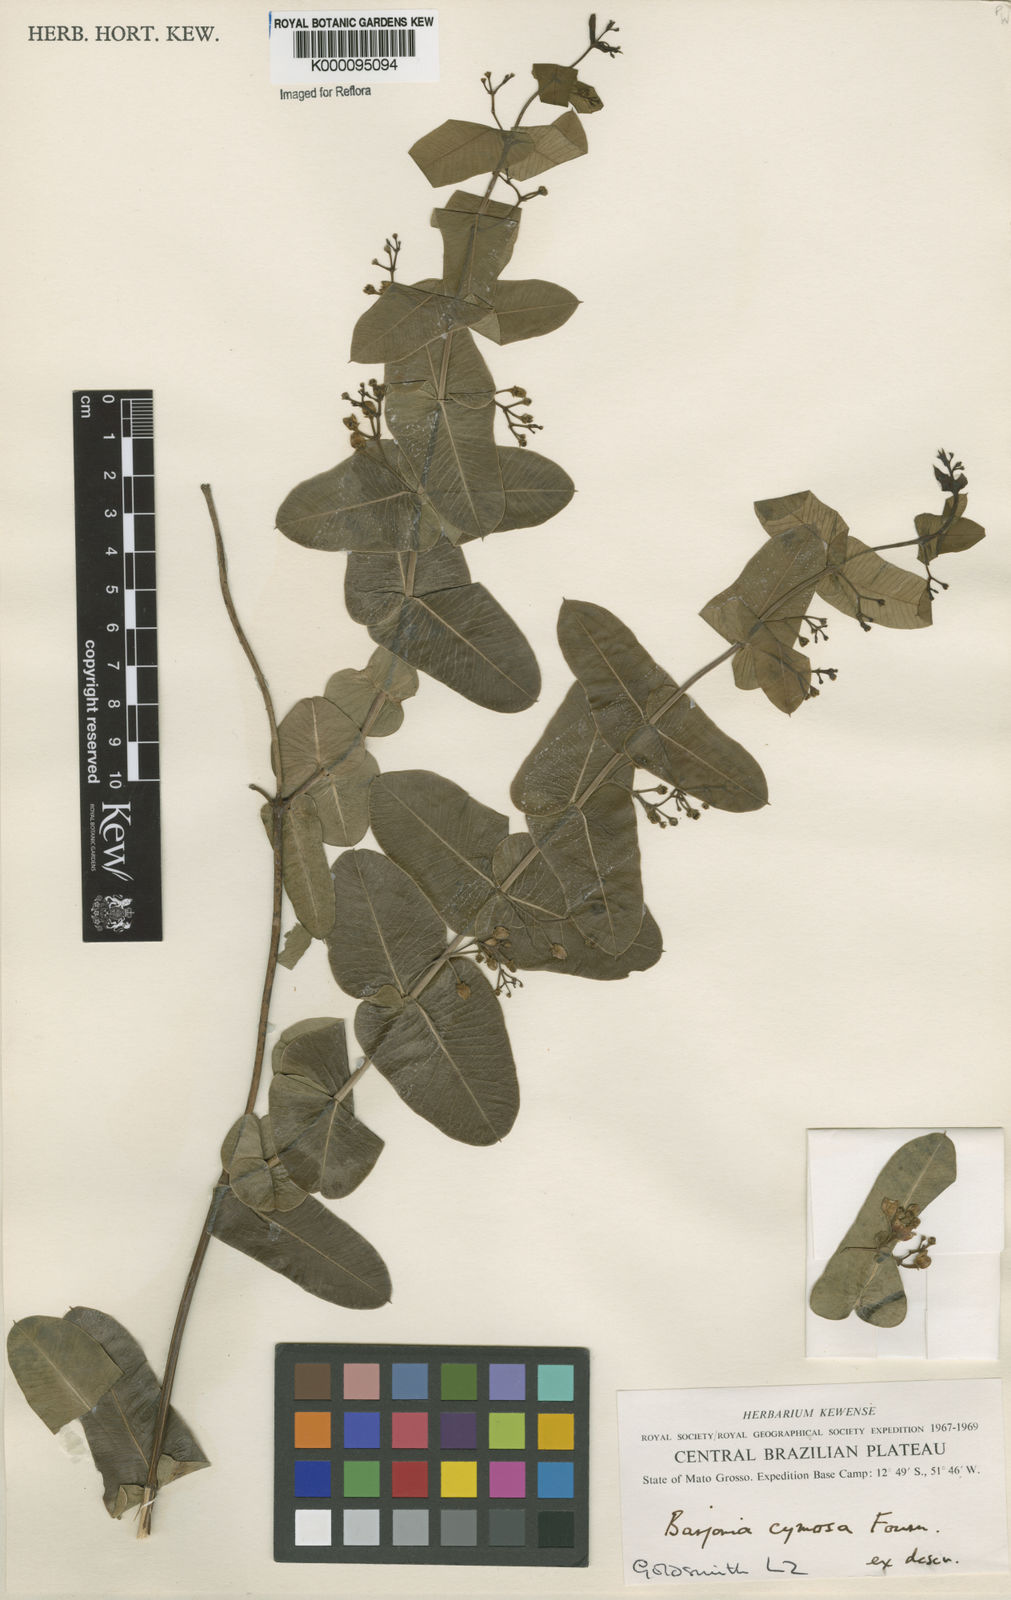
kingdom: Plantae
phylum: Tracheophyta
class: Magnoliopsida
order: Gentianales
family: Apocynaceae
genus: Barjonia
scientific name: Barjonia cymosa
